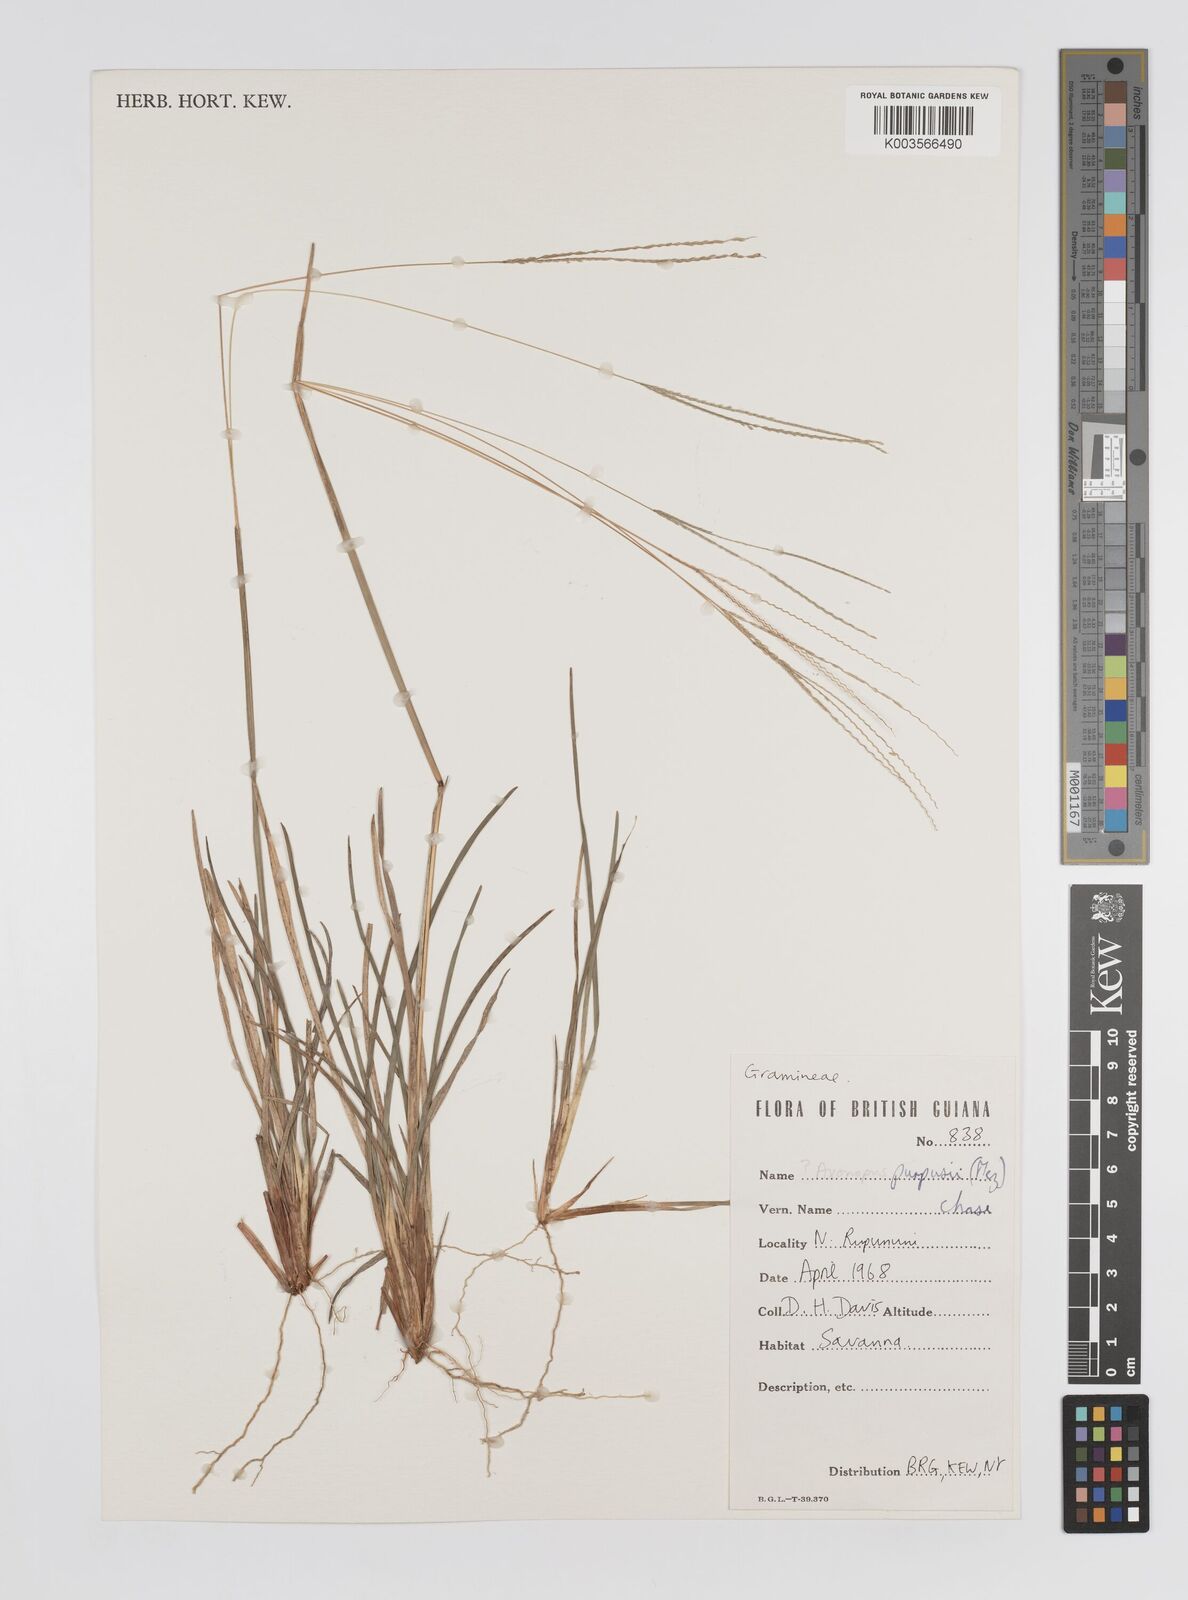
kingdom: Plantae
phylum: Tracheophyta
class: Liliopsida
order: Poales
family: Poaceae
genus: Axonopus
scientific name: Axonopus purpusii
